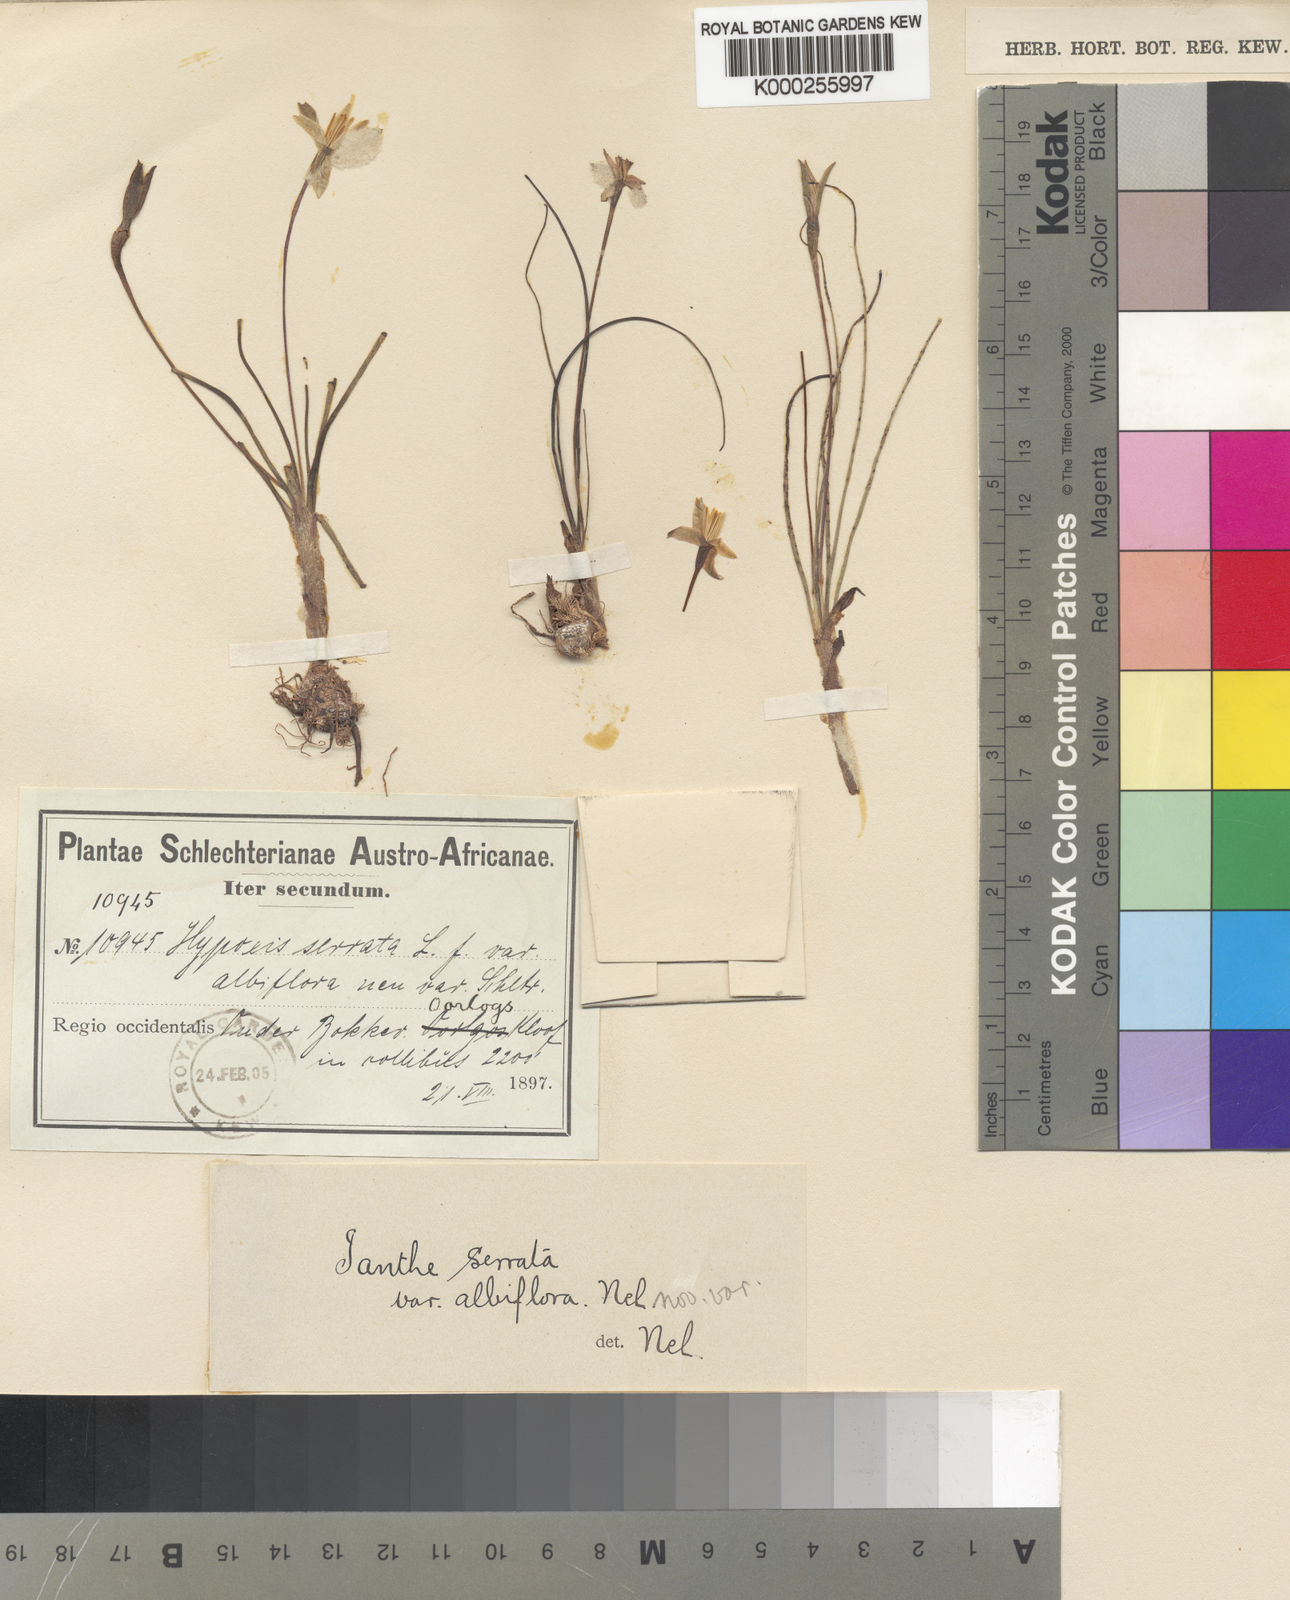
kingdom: Plantae
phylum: Tracheophyta
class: Liliopsida
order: Asparagales
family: Hypoxidaceae
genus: Pauridia
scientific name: Pauridia serrata
